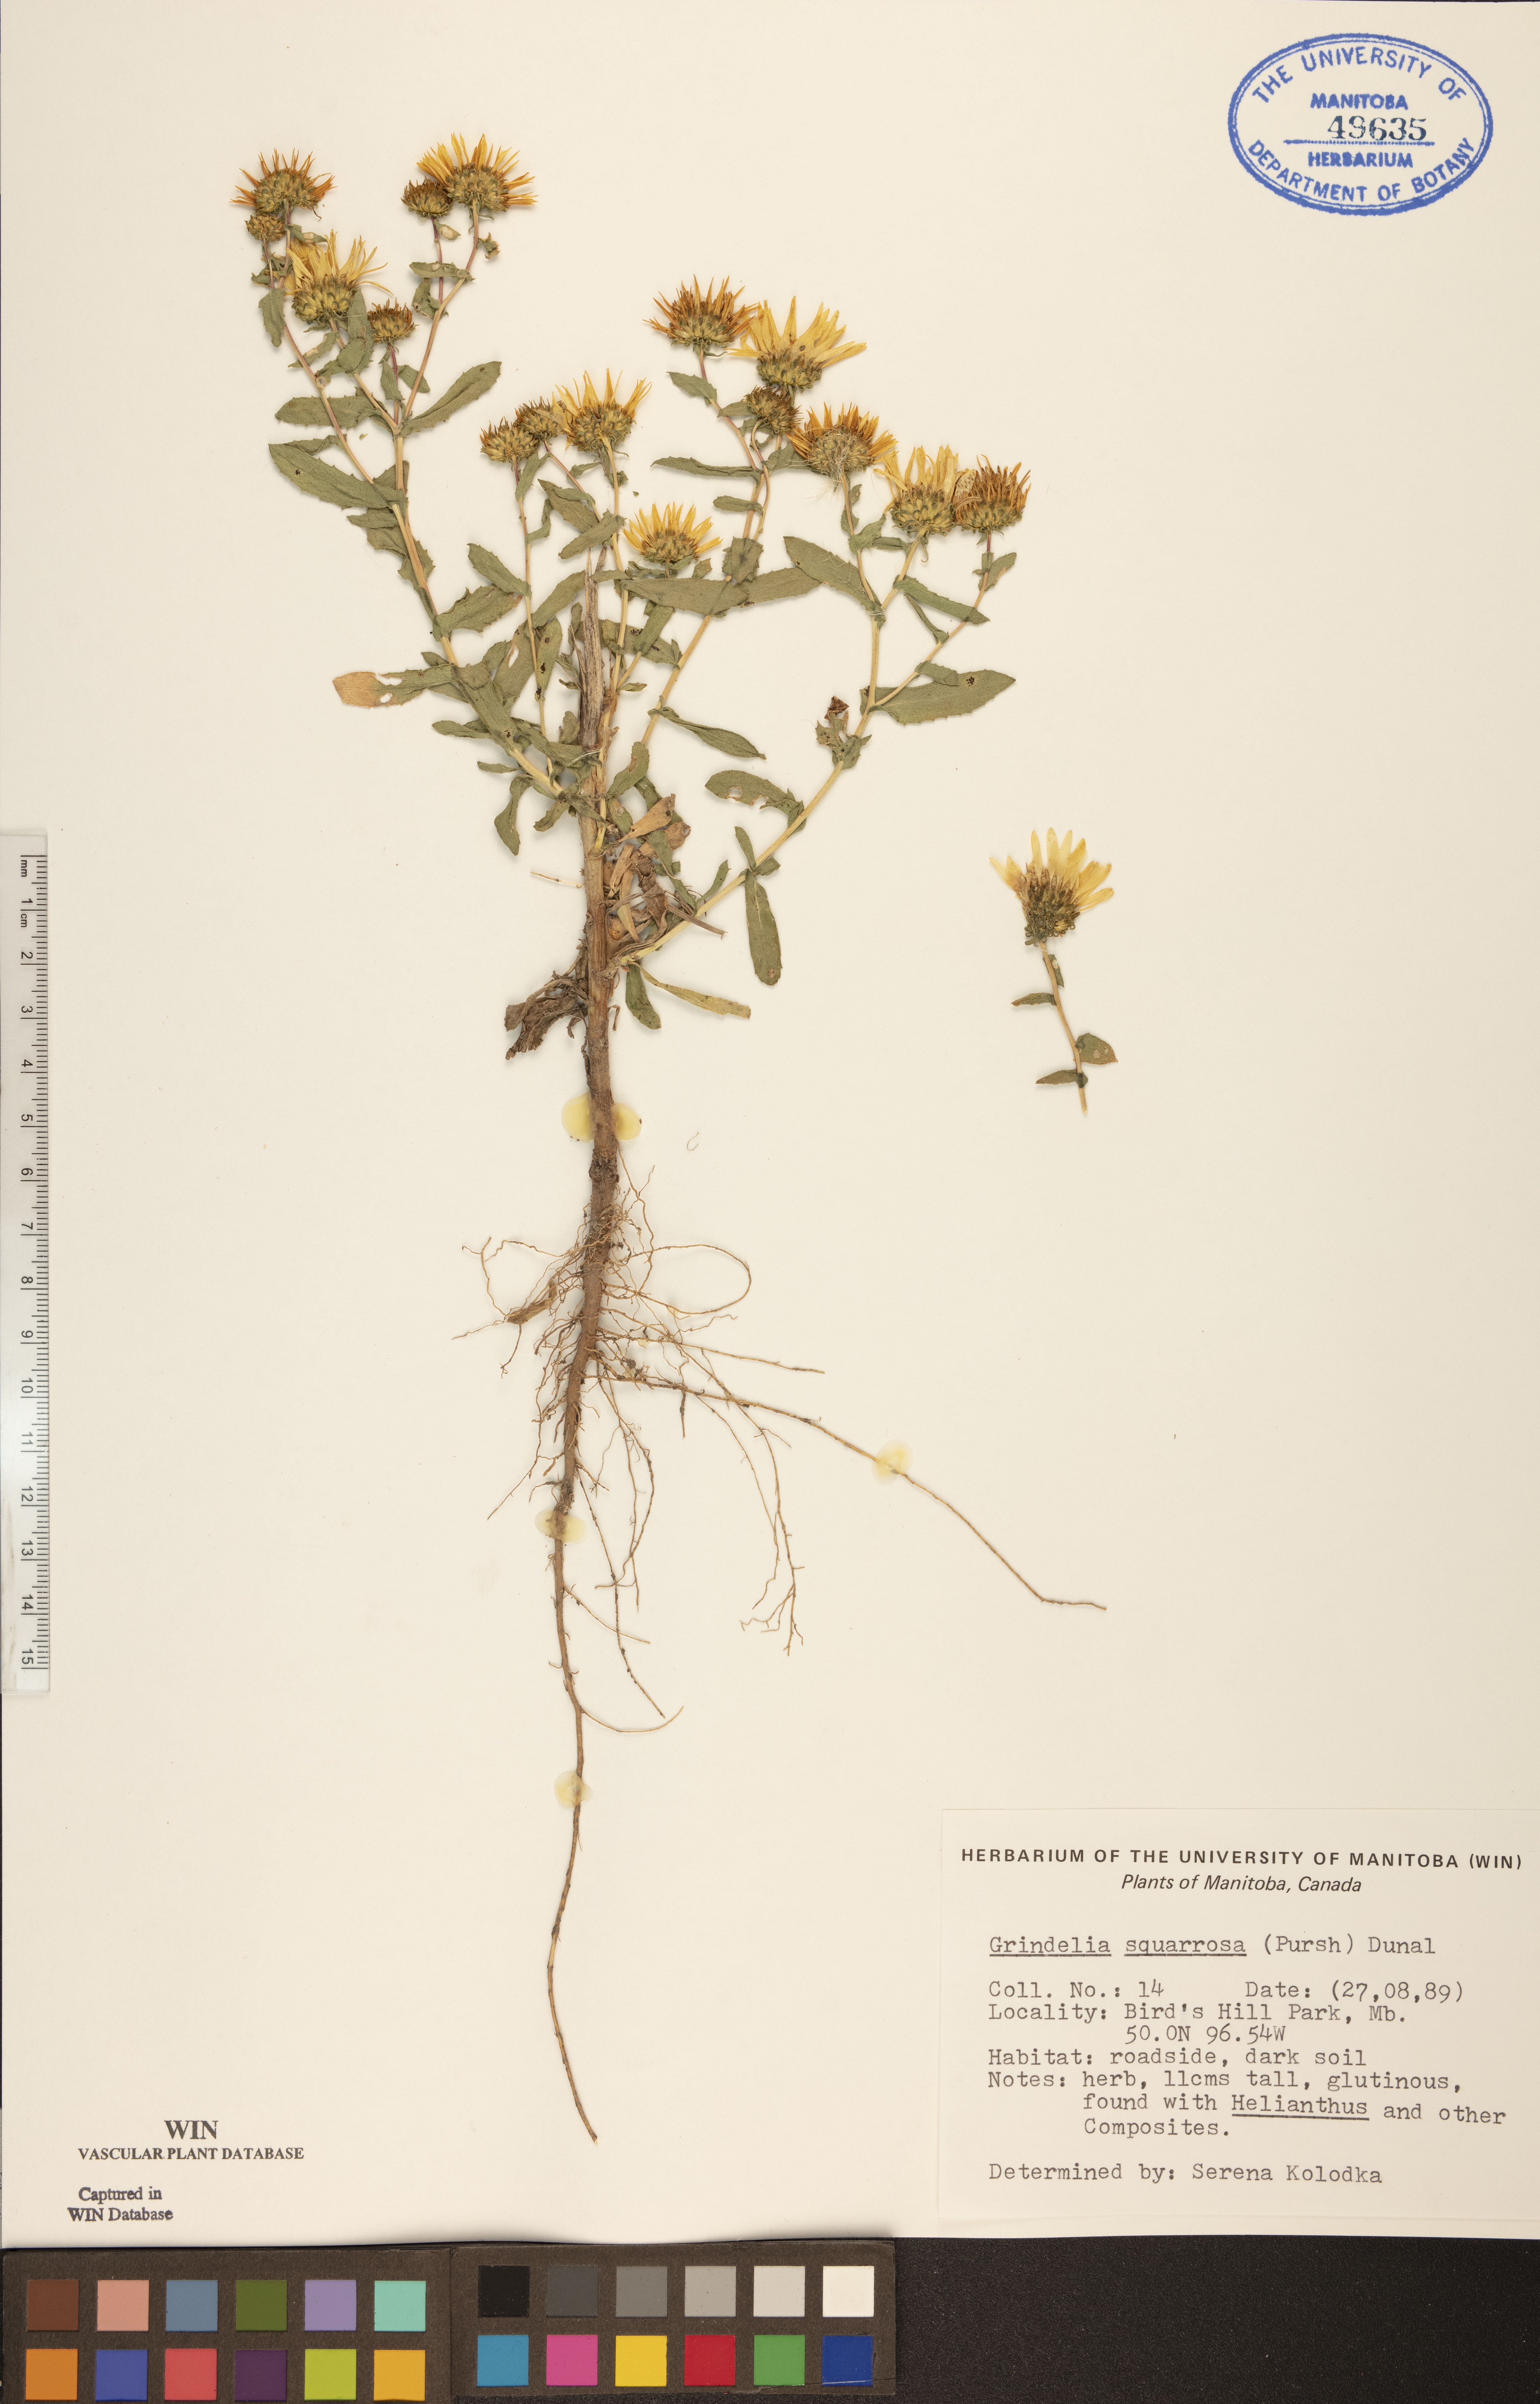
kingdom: Plantae
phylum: Tracheophyta
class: Magnoliopsida
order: Asterales
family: Asteraceae
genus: Grindelia
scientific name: Grindelia squarrosa
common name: Curly-cup gumweed
